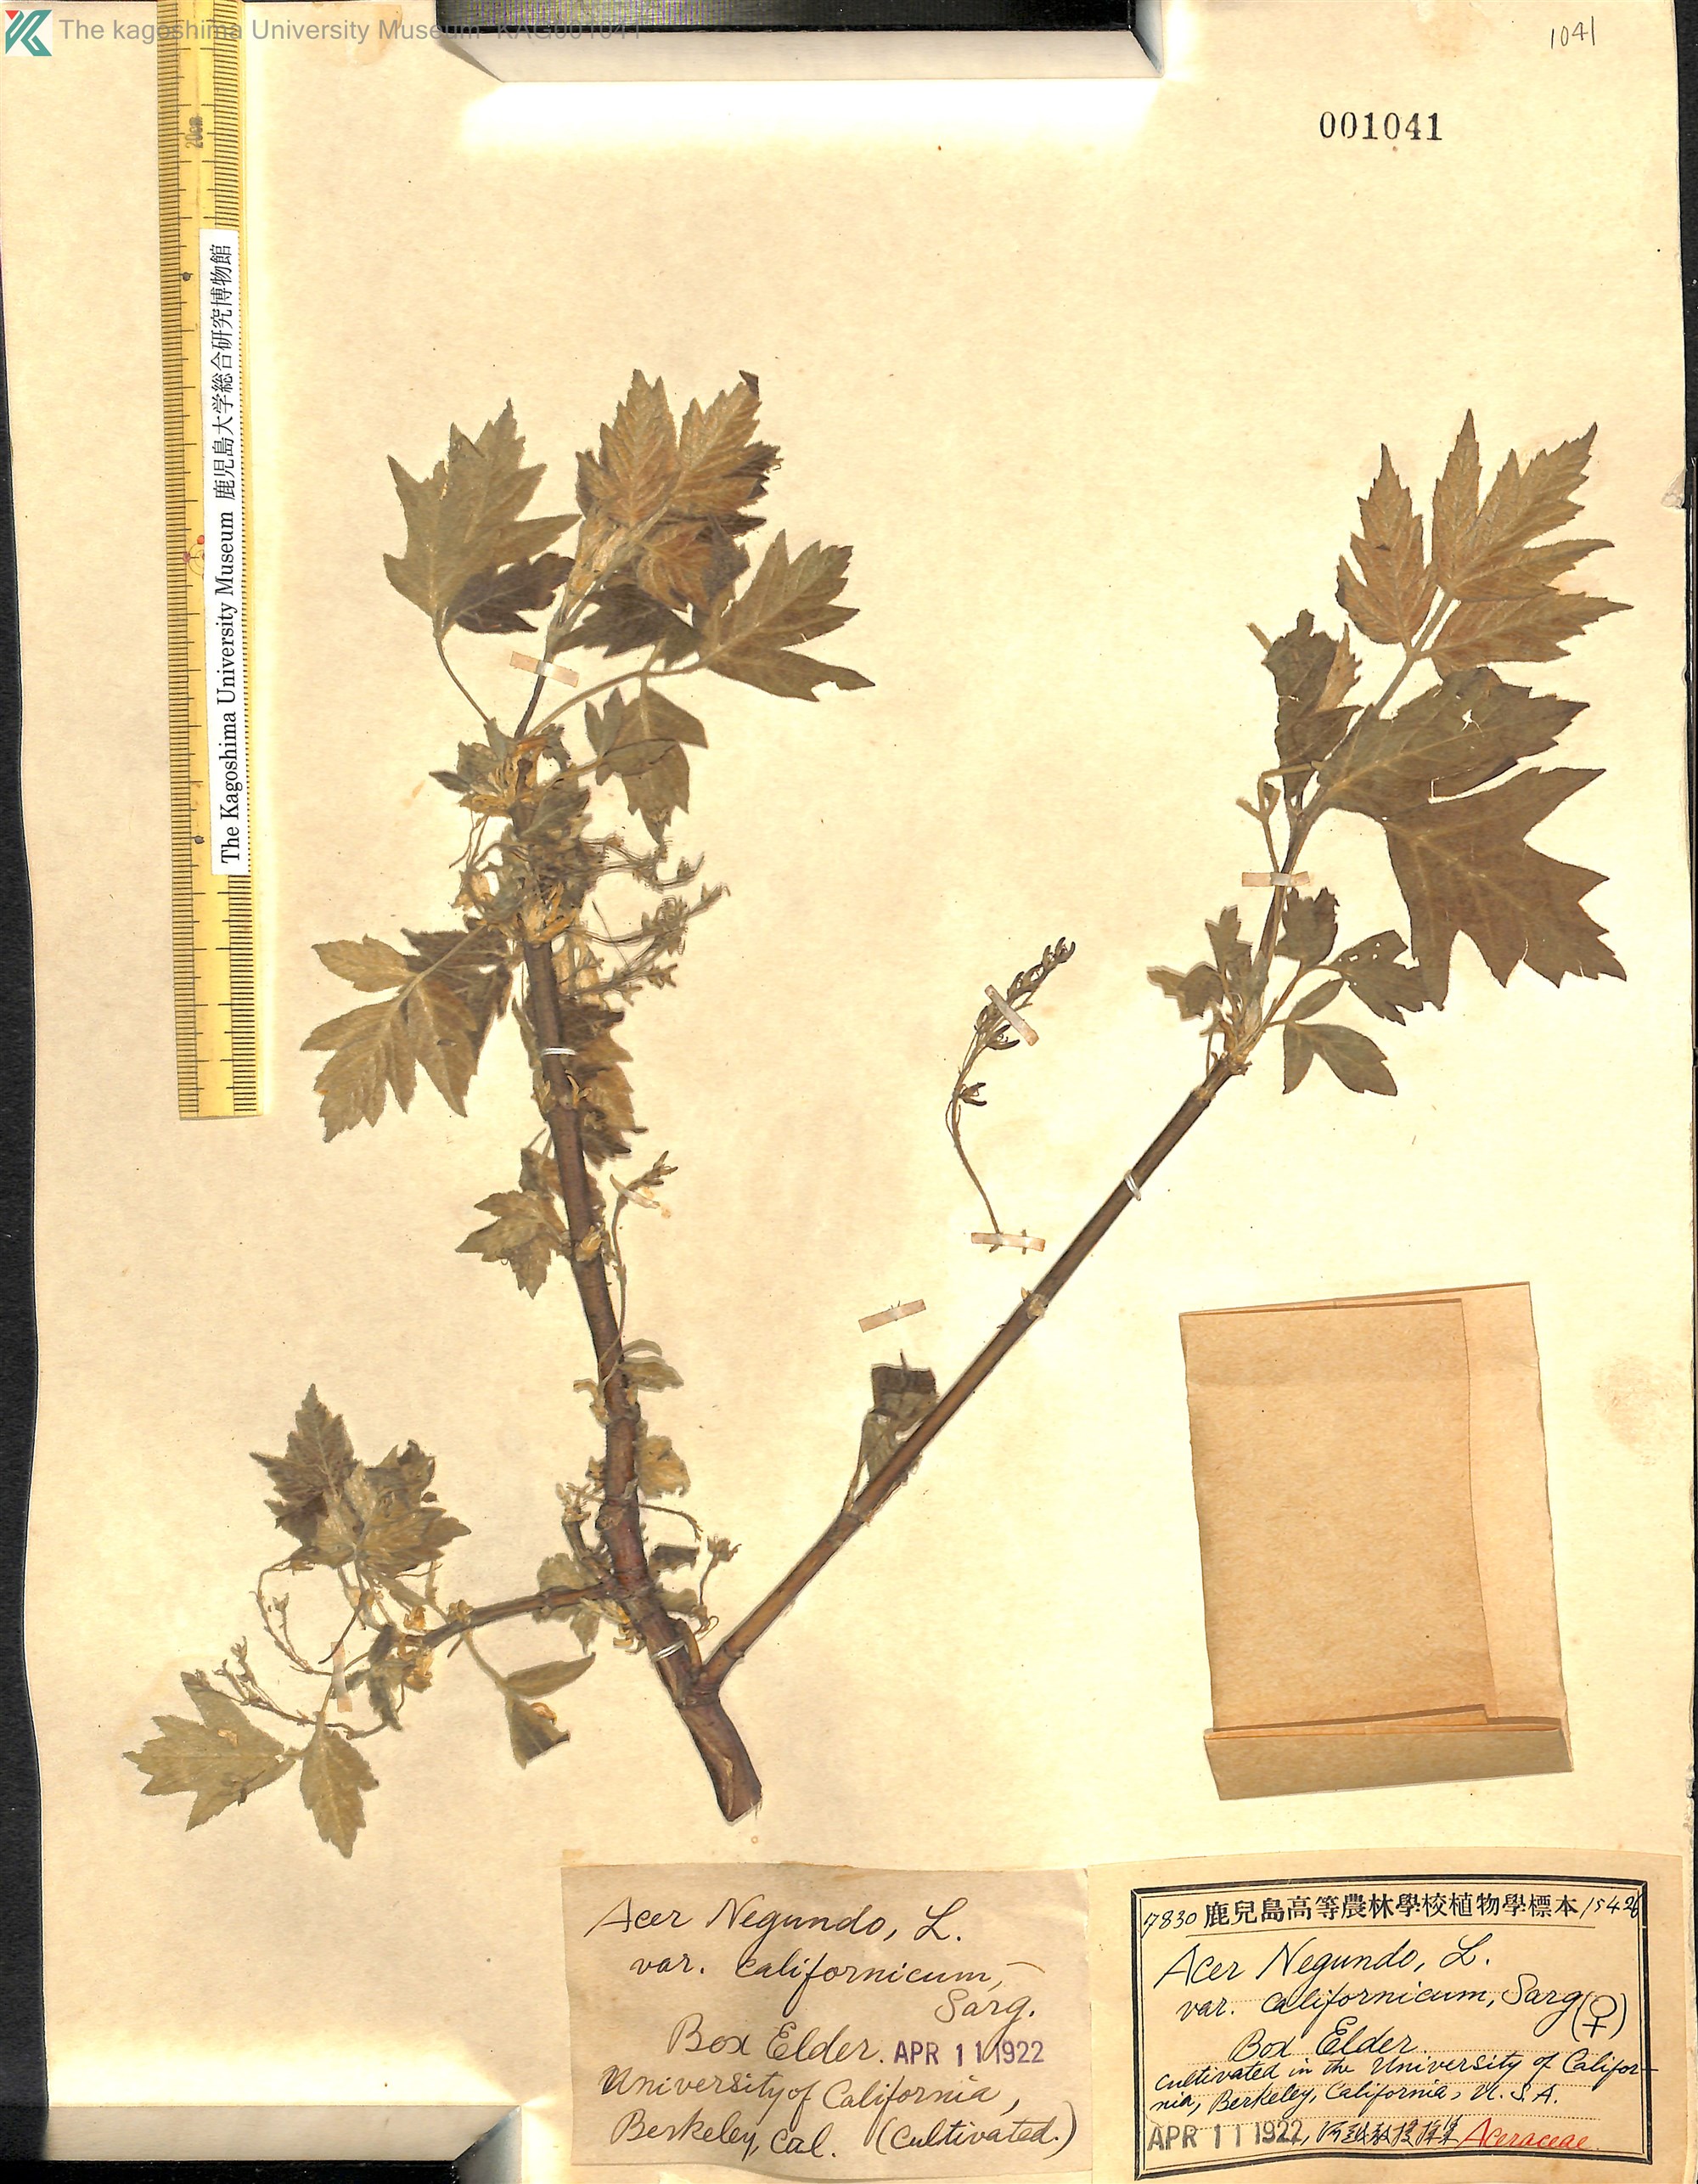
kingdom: Plantae
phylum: Tracheophyta
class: Magnoliopsida
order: Sapindales
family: Sapindaceae
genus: Acer
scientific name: Acer negundo
